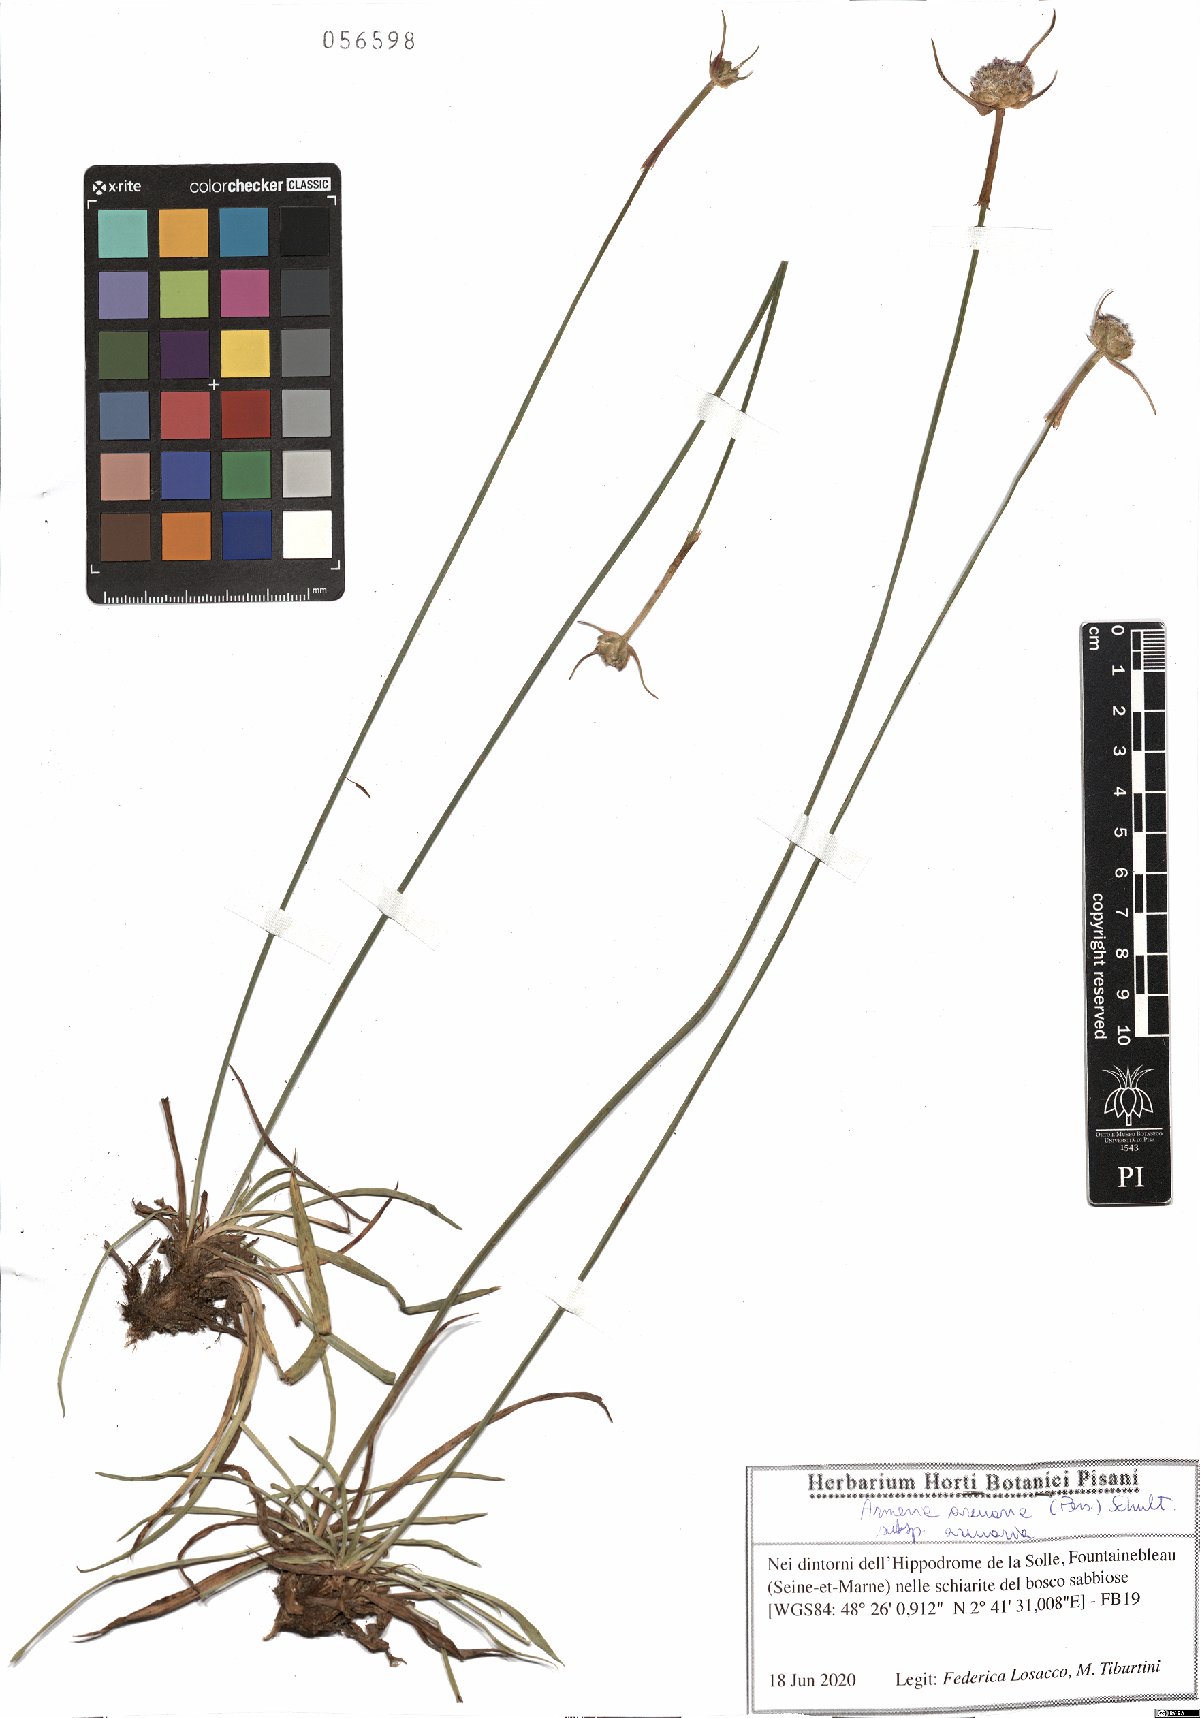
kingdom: Plantae
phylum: Tracheophyta
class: Magnoliopsida
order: Caryophyllales
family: Plumbaginaceae
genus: Armeria
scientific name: Armeria arenaria
